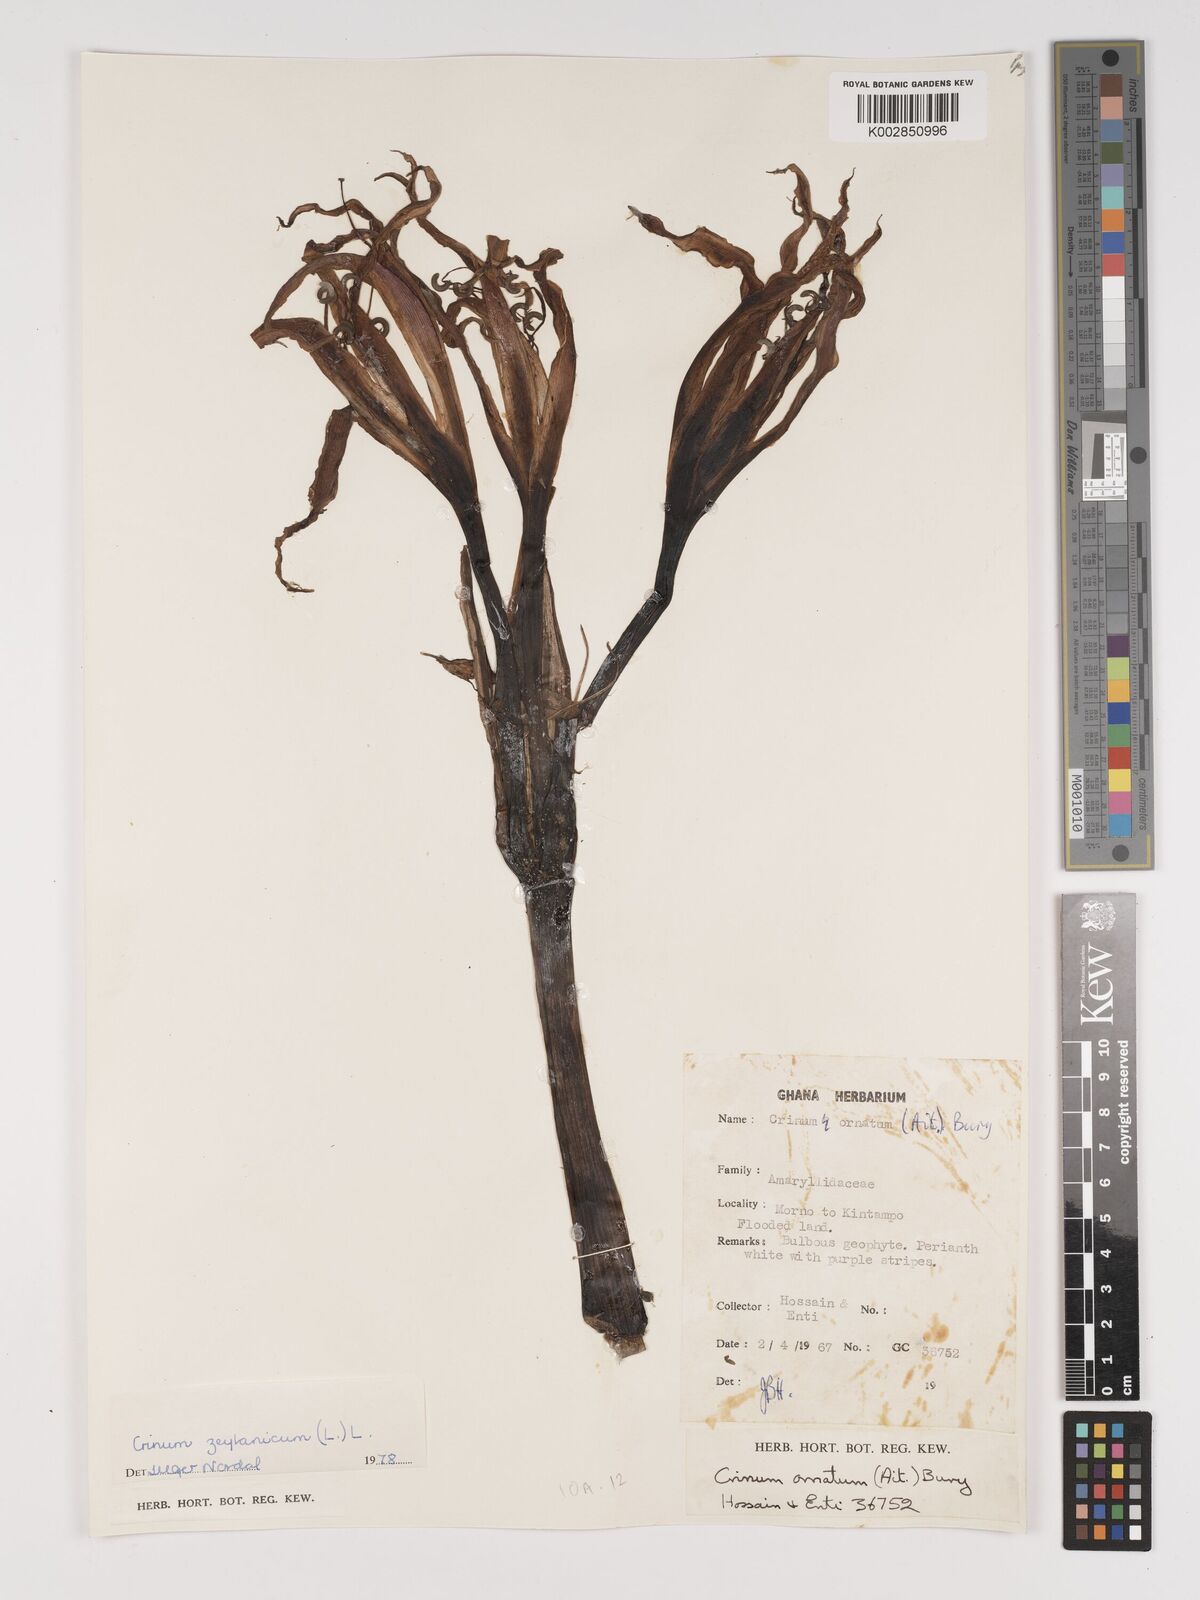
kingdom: Plantae
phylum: Tracheophyta
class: Liliopsida
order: Asparagales
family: Amaryllidaceae
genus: Crinum
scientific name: Crinum ornatum
